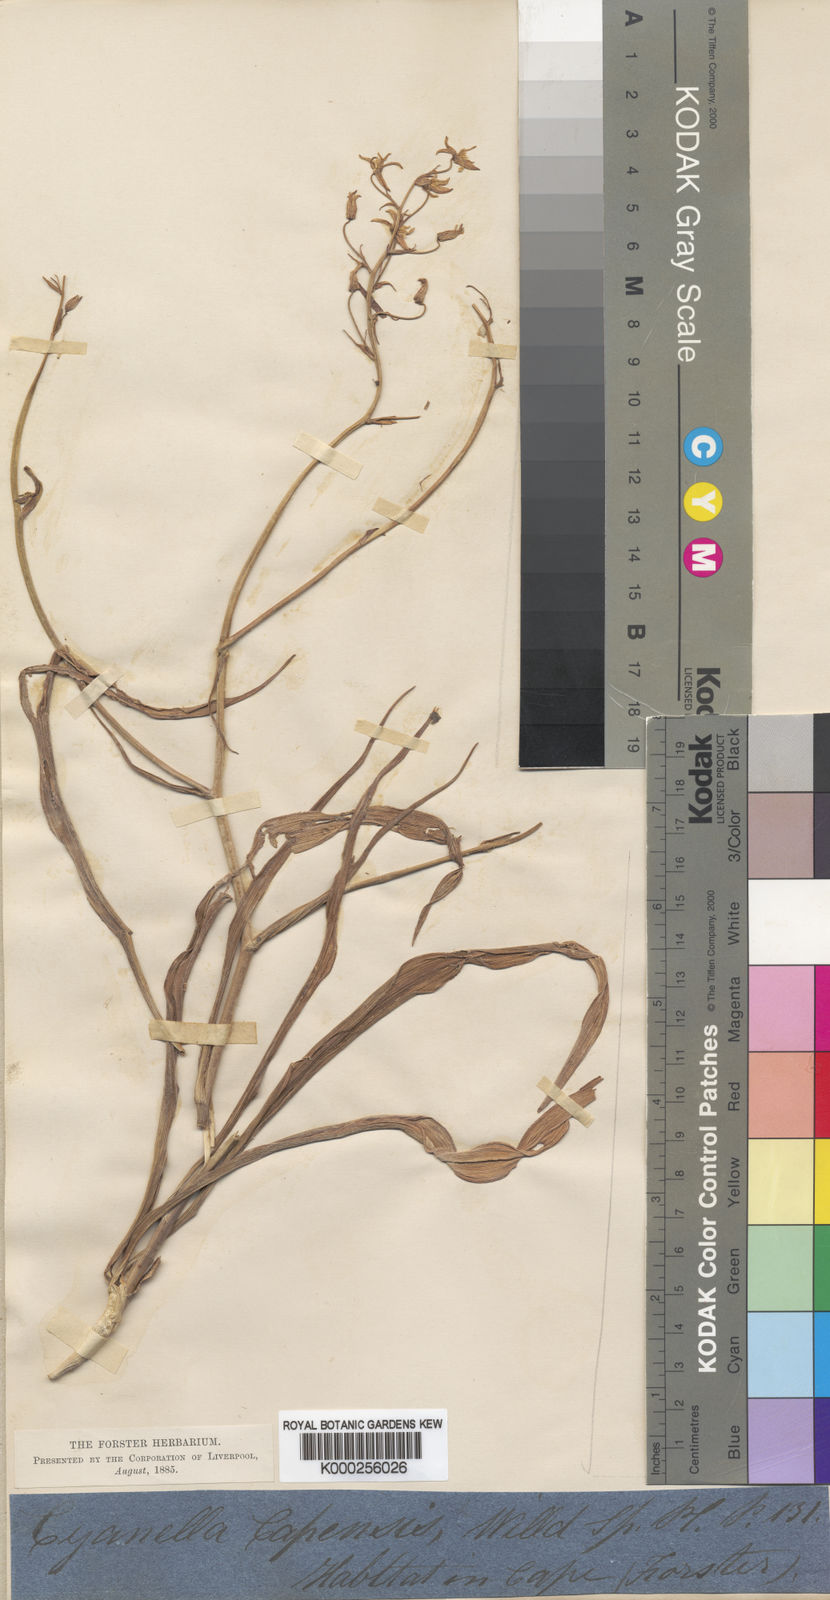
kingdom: Plantae
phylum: Tracheophyta
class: Liliopsida
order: Asparagales
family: Tecophilaeaceae
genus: Cyanella
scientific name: Cyanella
